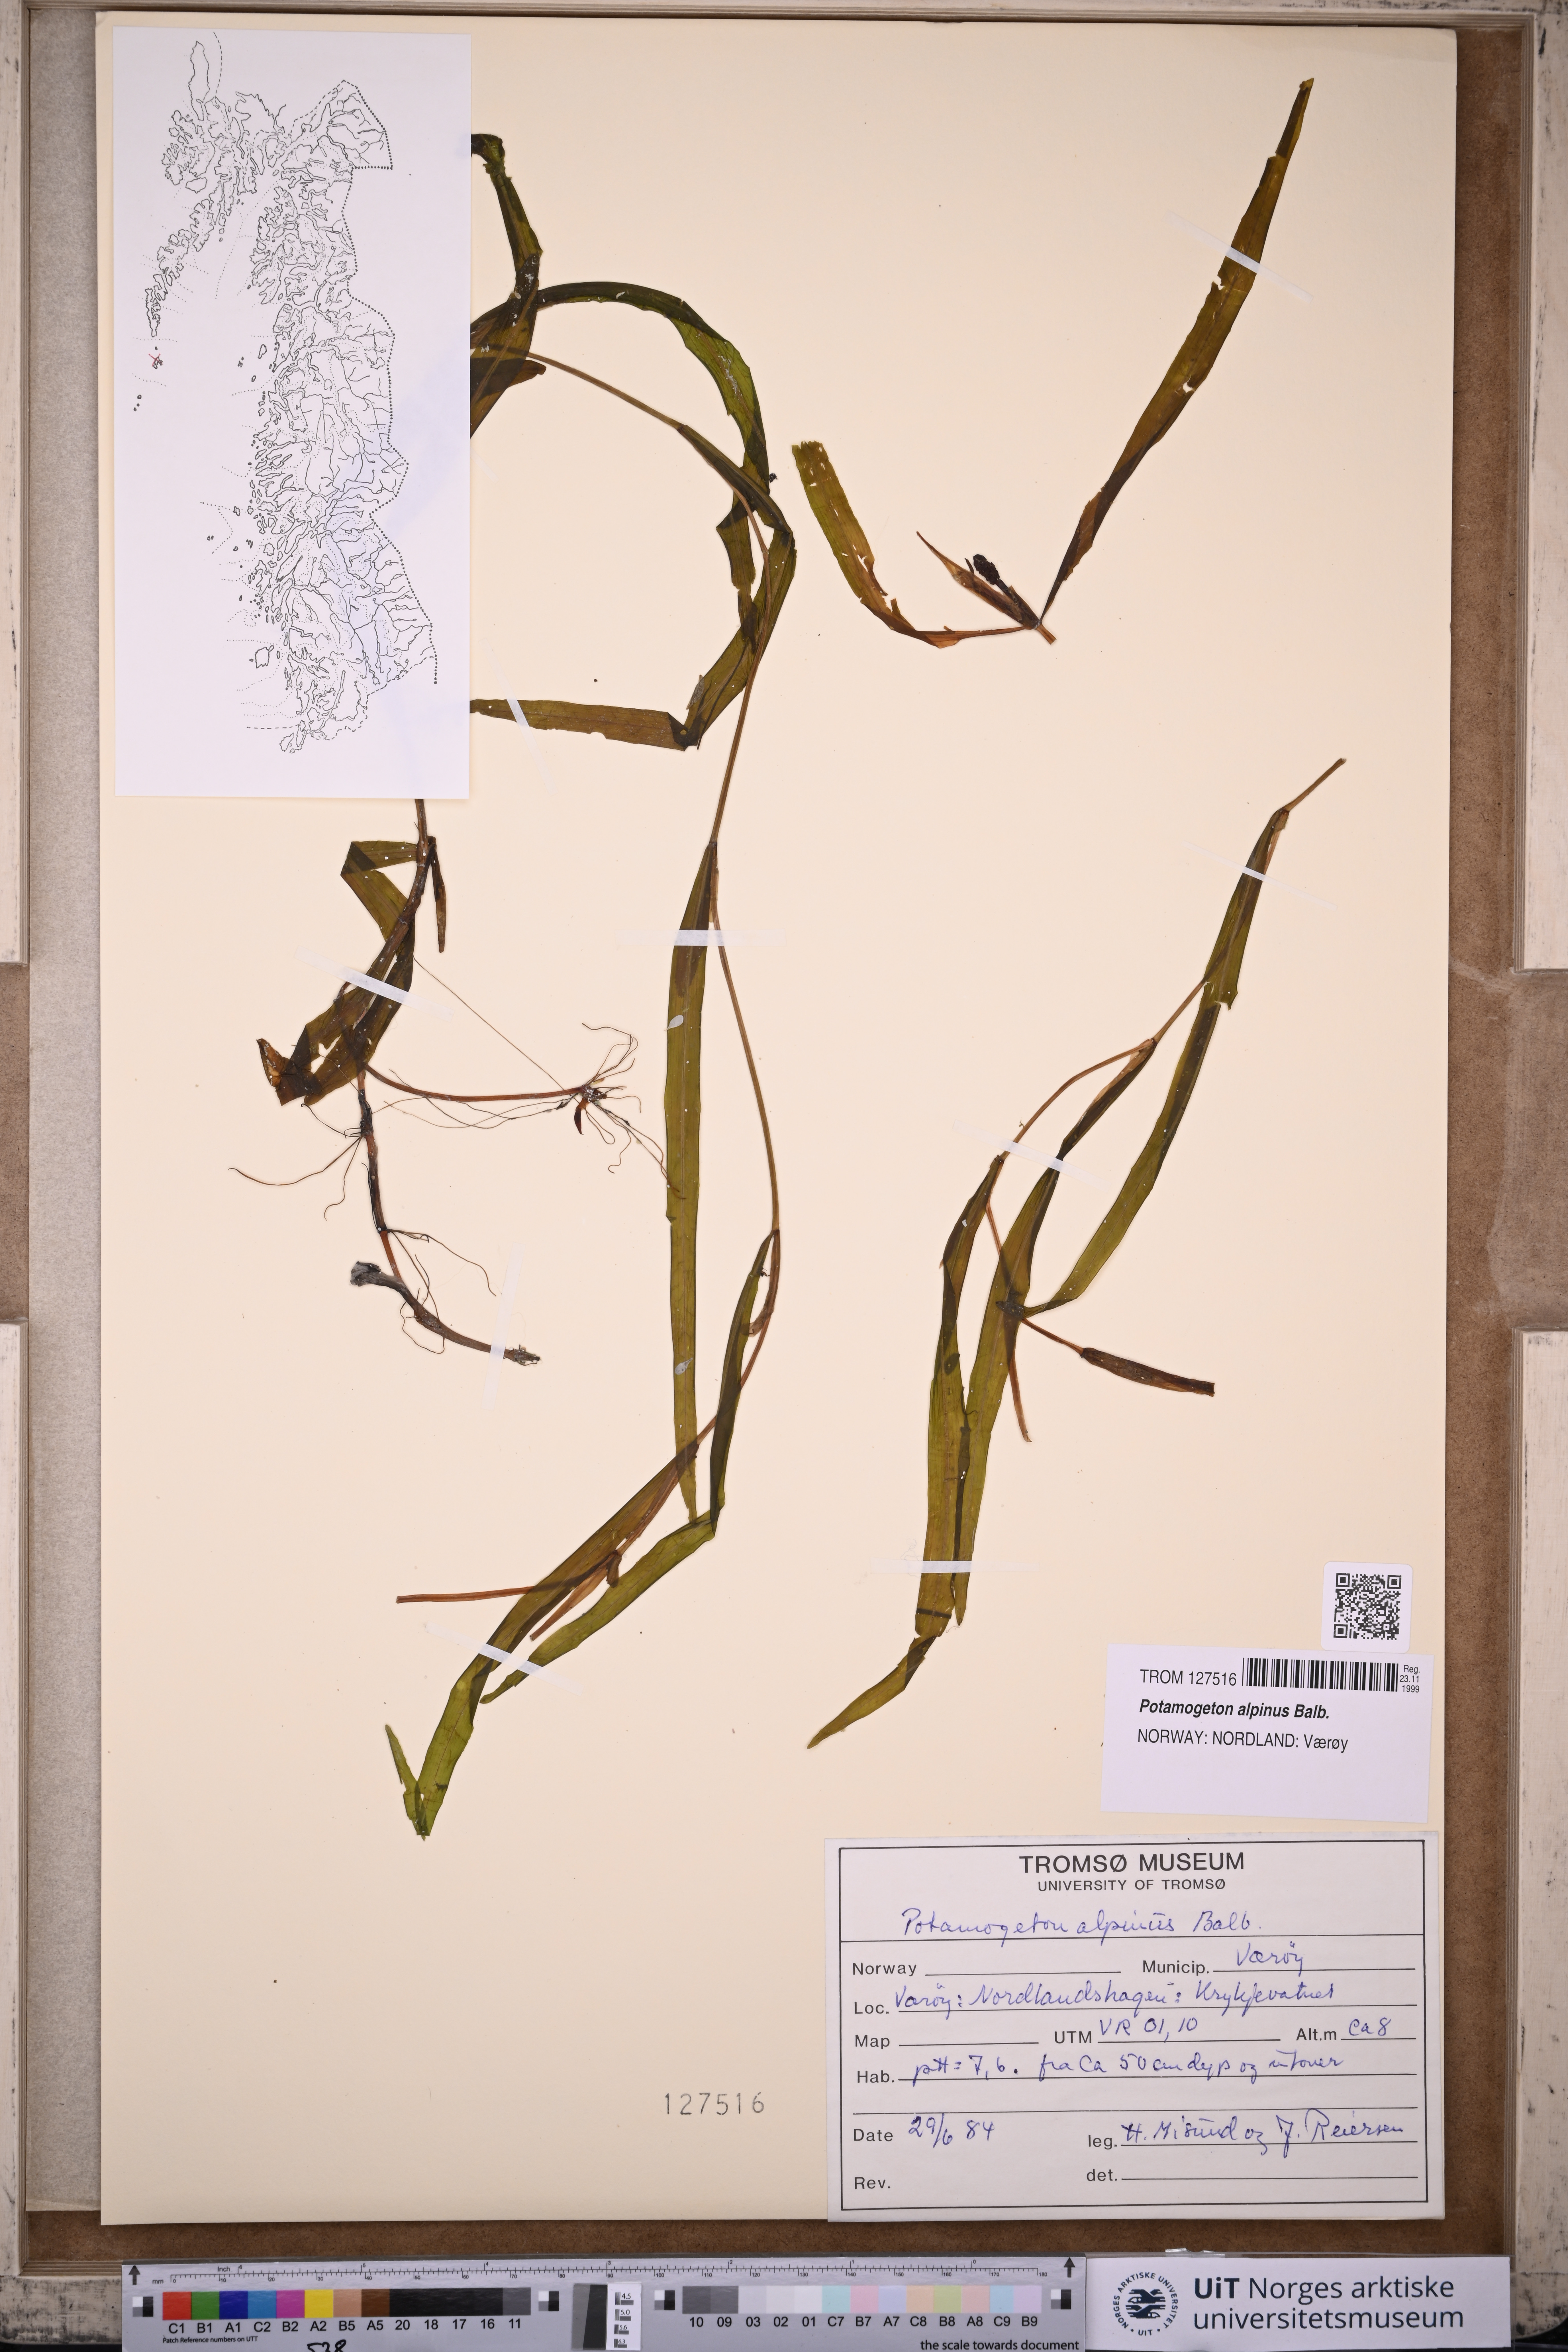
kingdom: Plantae
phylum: Tracheophyta
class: Liliopsida
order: Alismatales
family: Potamogetonaceae
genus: Potamogeton
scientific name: Potamogeton alpinus
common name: Red pondweed
